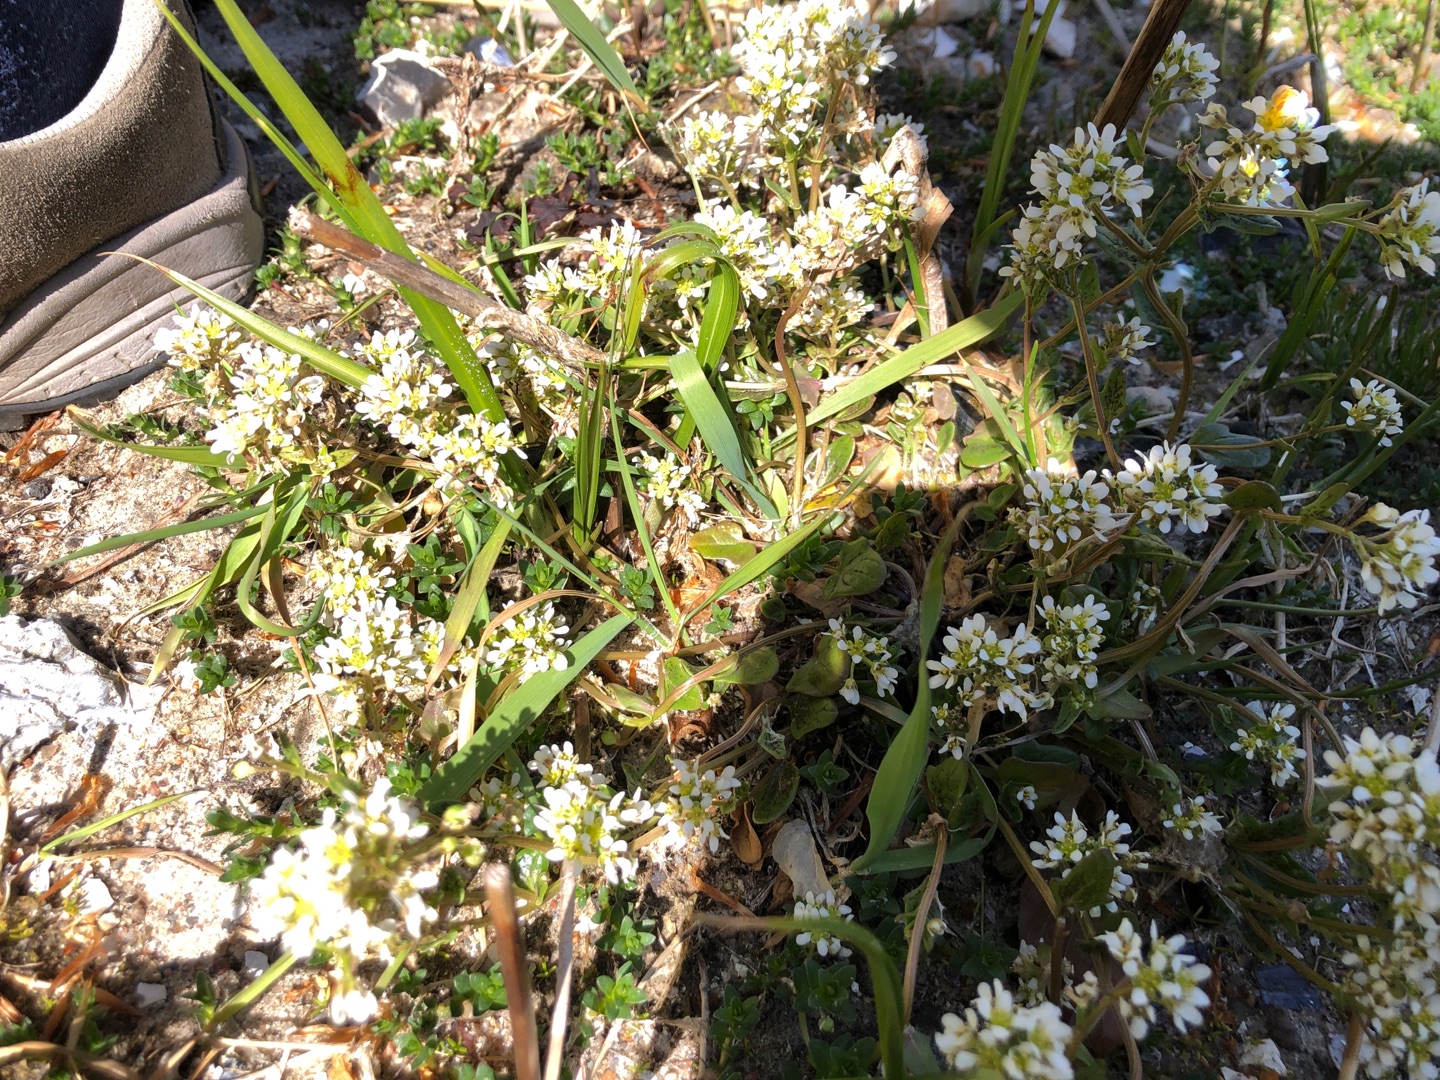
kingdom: Plantae
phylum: Tracheophyta
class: Magnoliopsida
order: Brassicales
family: Brassicaceae
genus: Cochlearia
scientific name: Cochlearia officinalis
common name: Læge-kokleare (underart)
